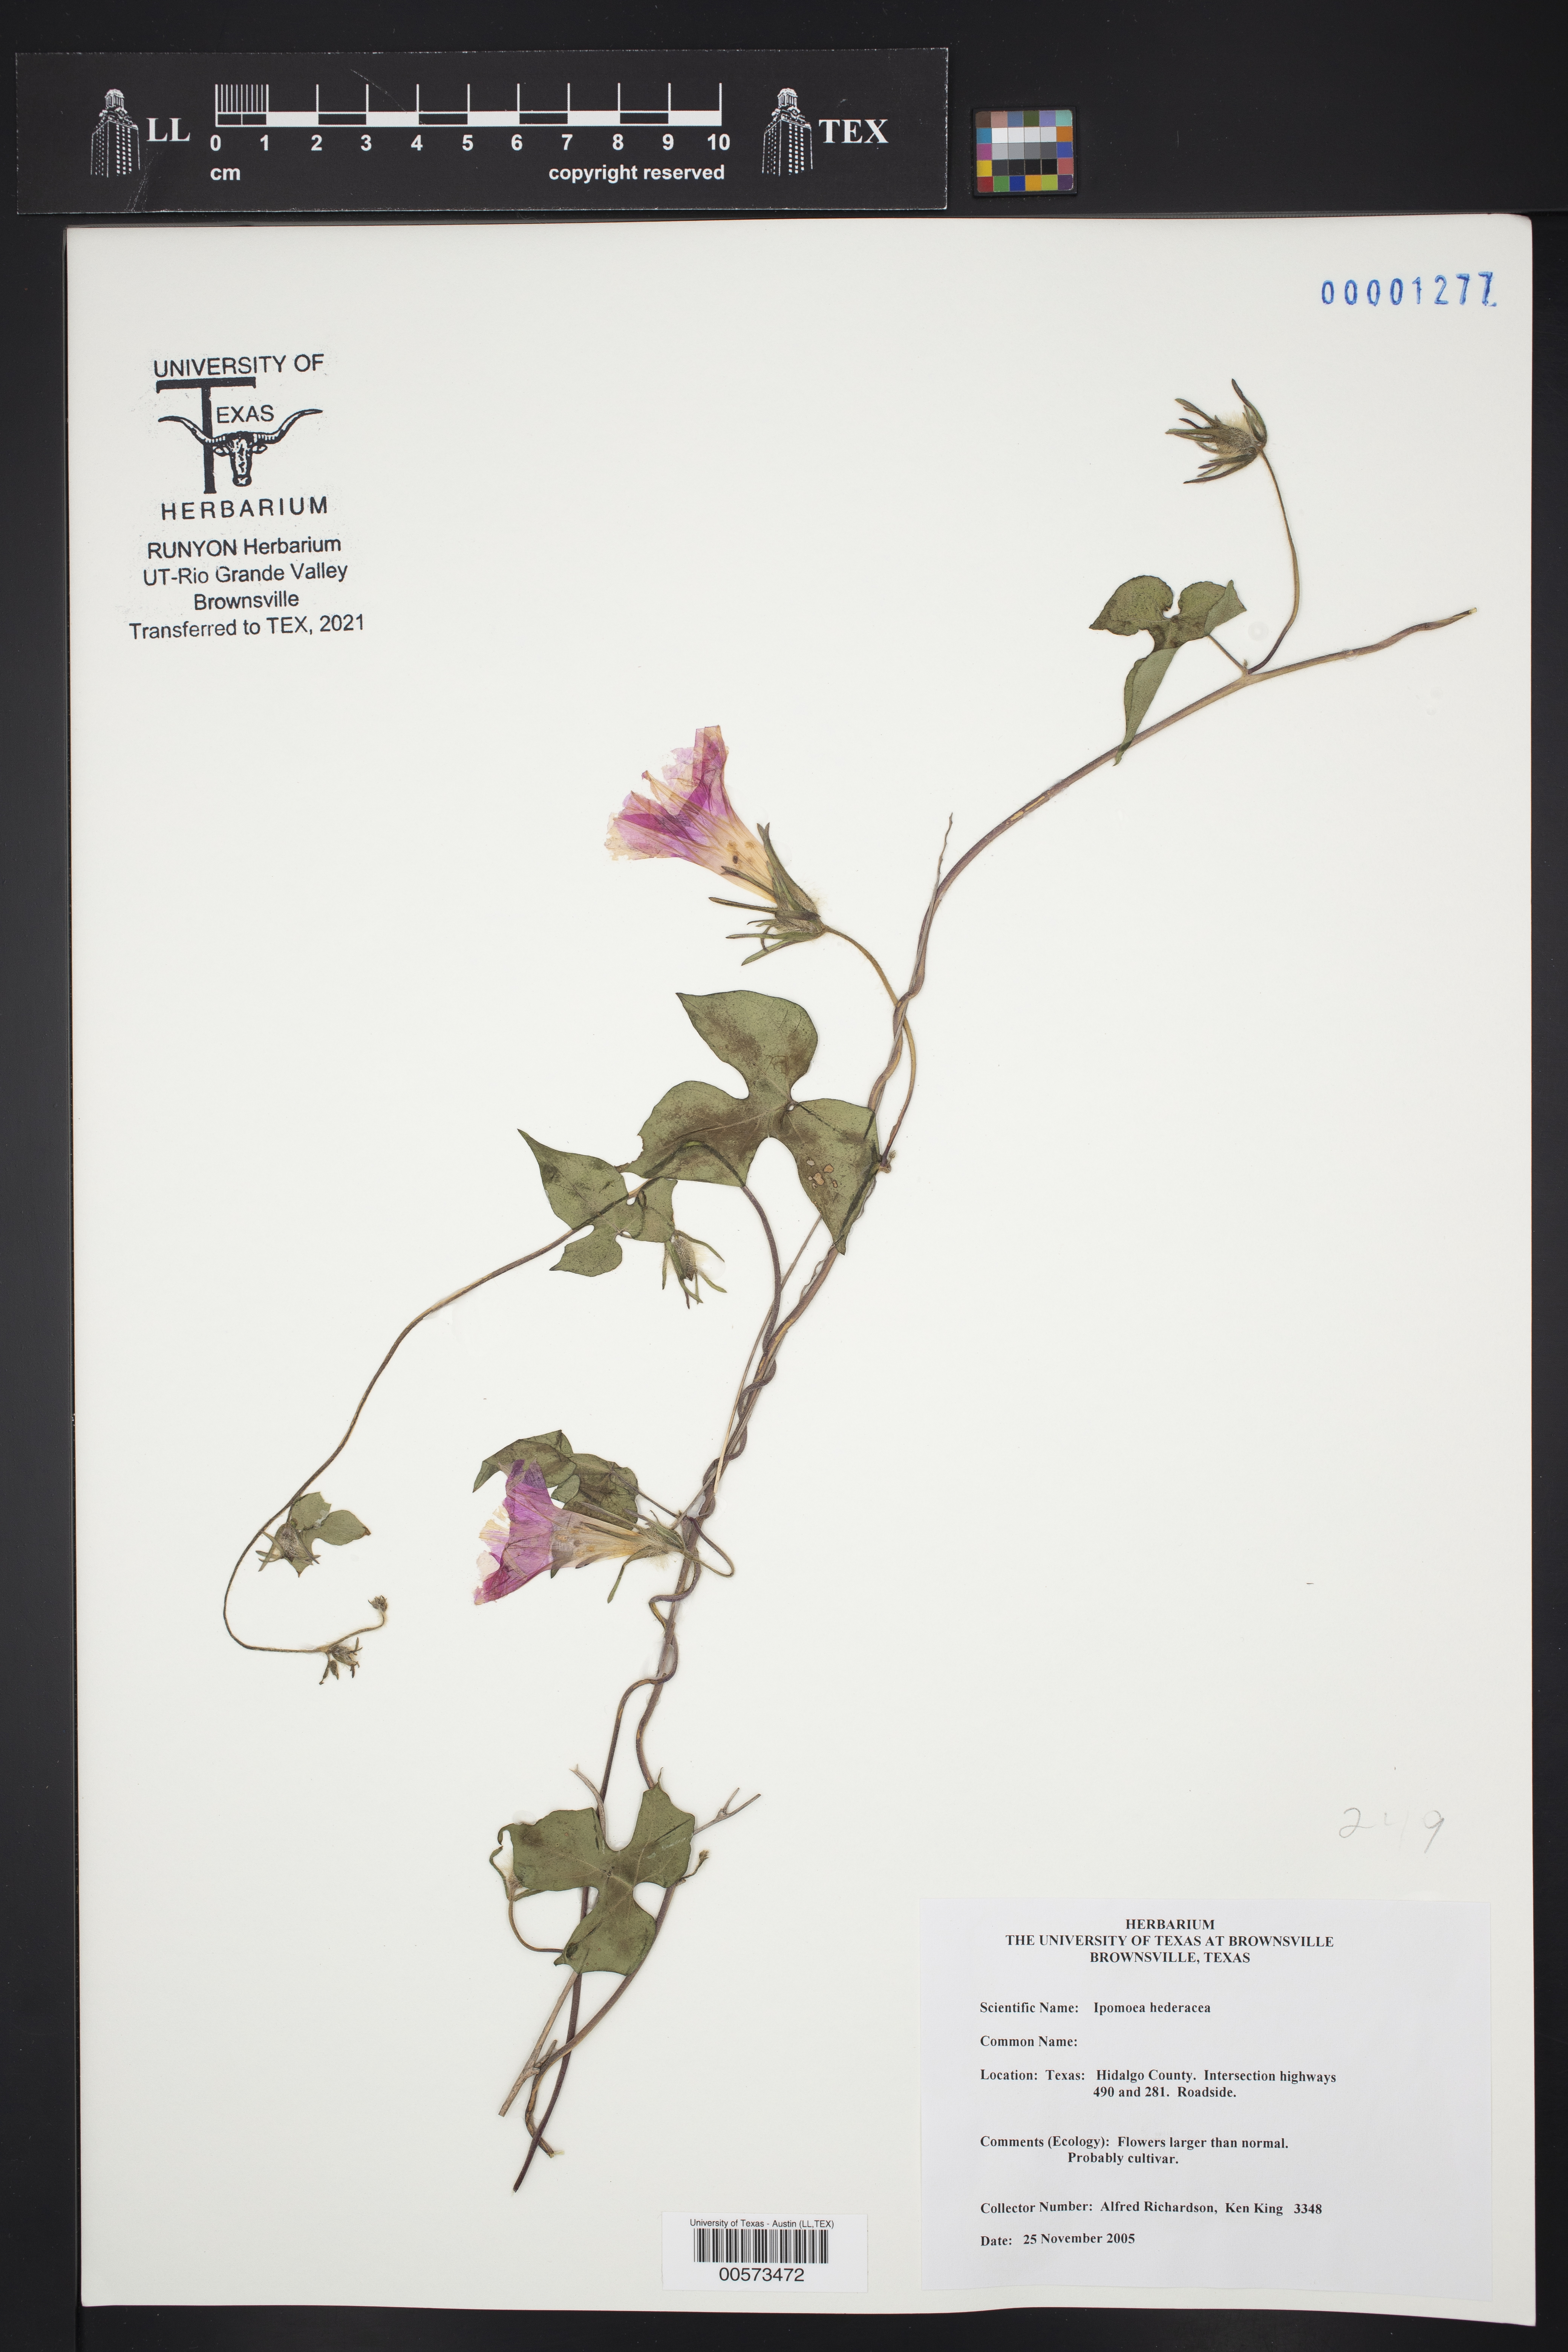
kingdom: Plantae
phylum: Tracheophyta
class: Magnoliopsida
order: Solanales
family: Convolvulaceae
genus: Ipomoea
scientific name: Ipomoea hederacea
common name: Ivy-leaved morning-glory
